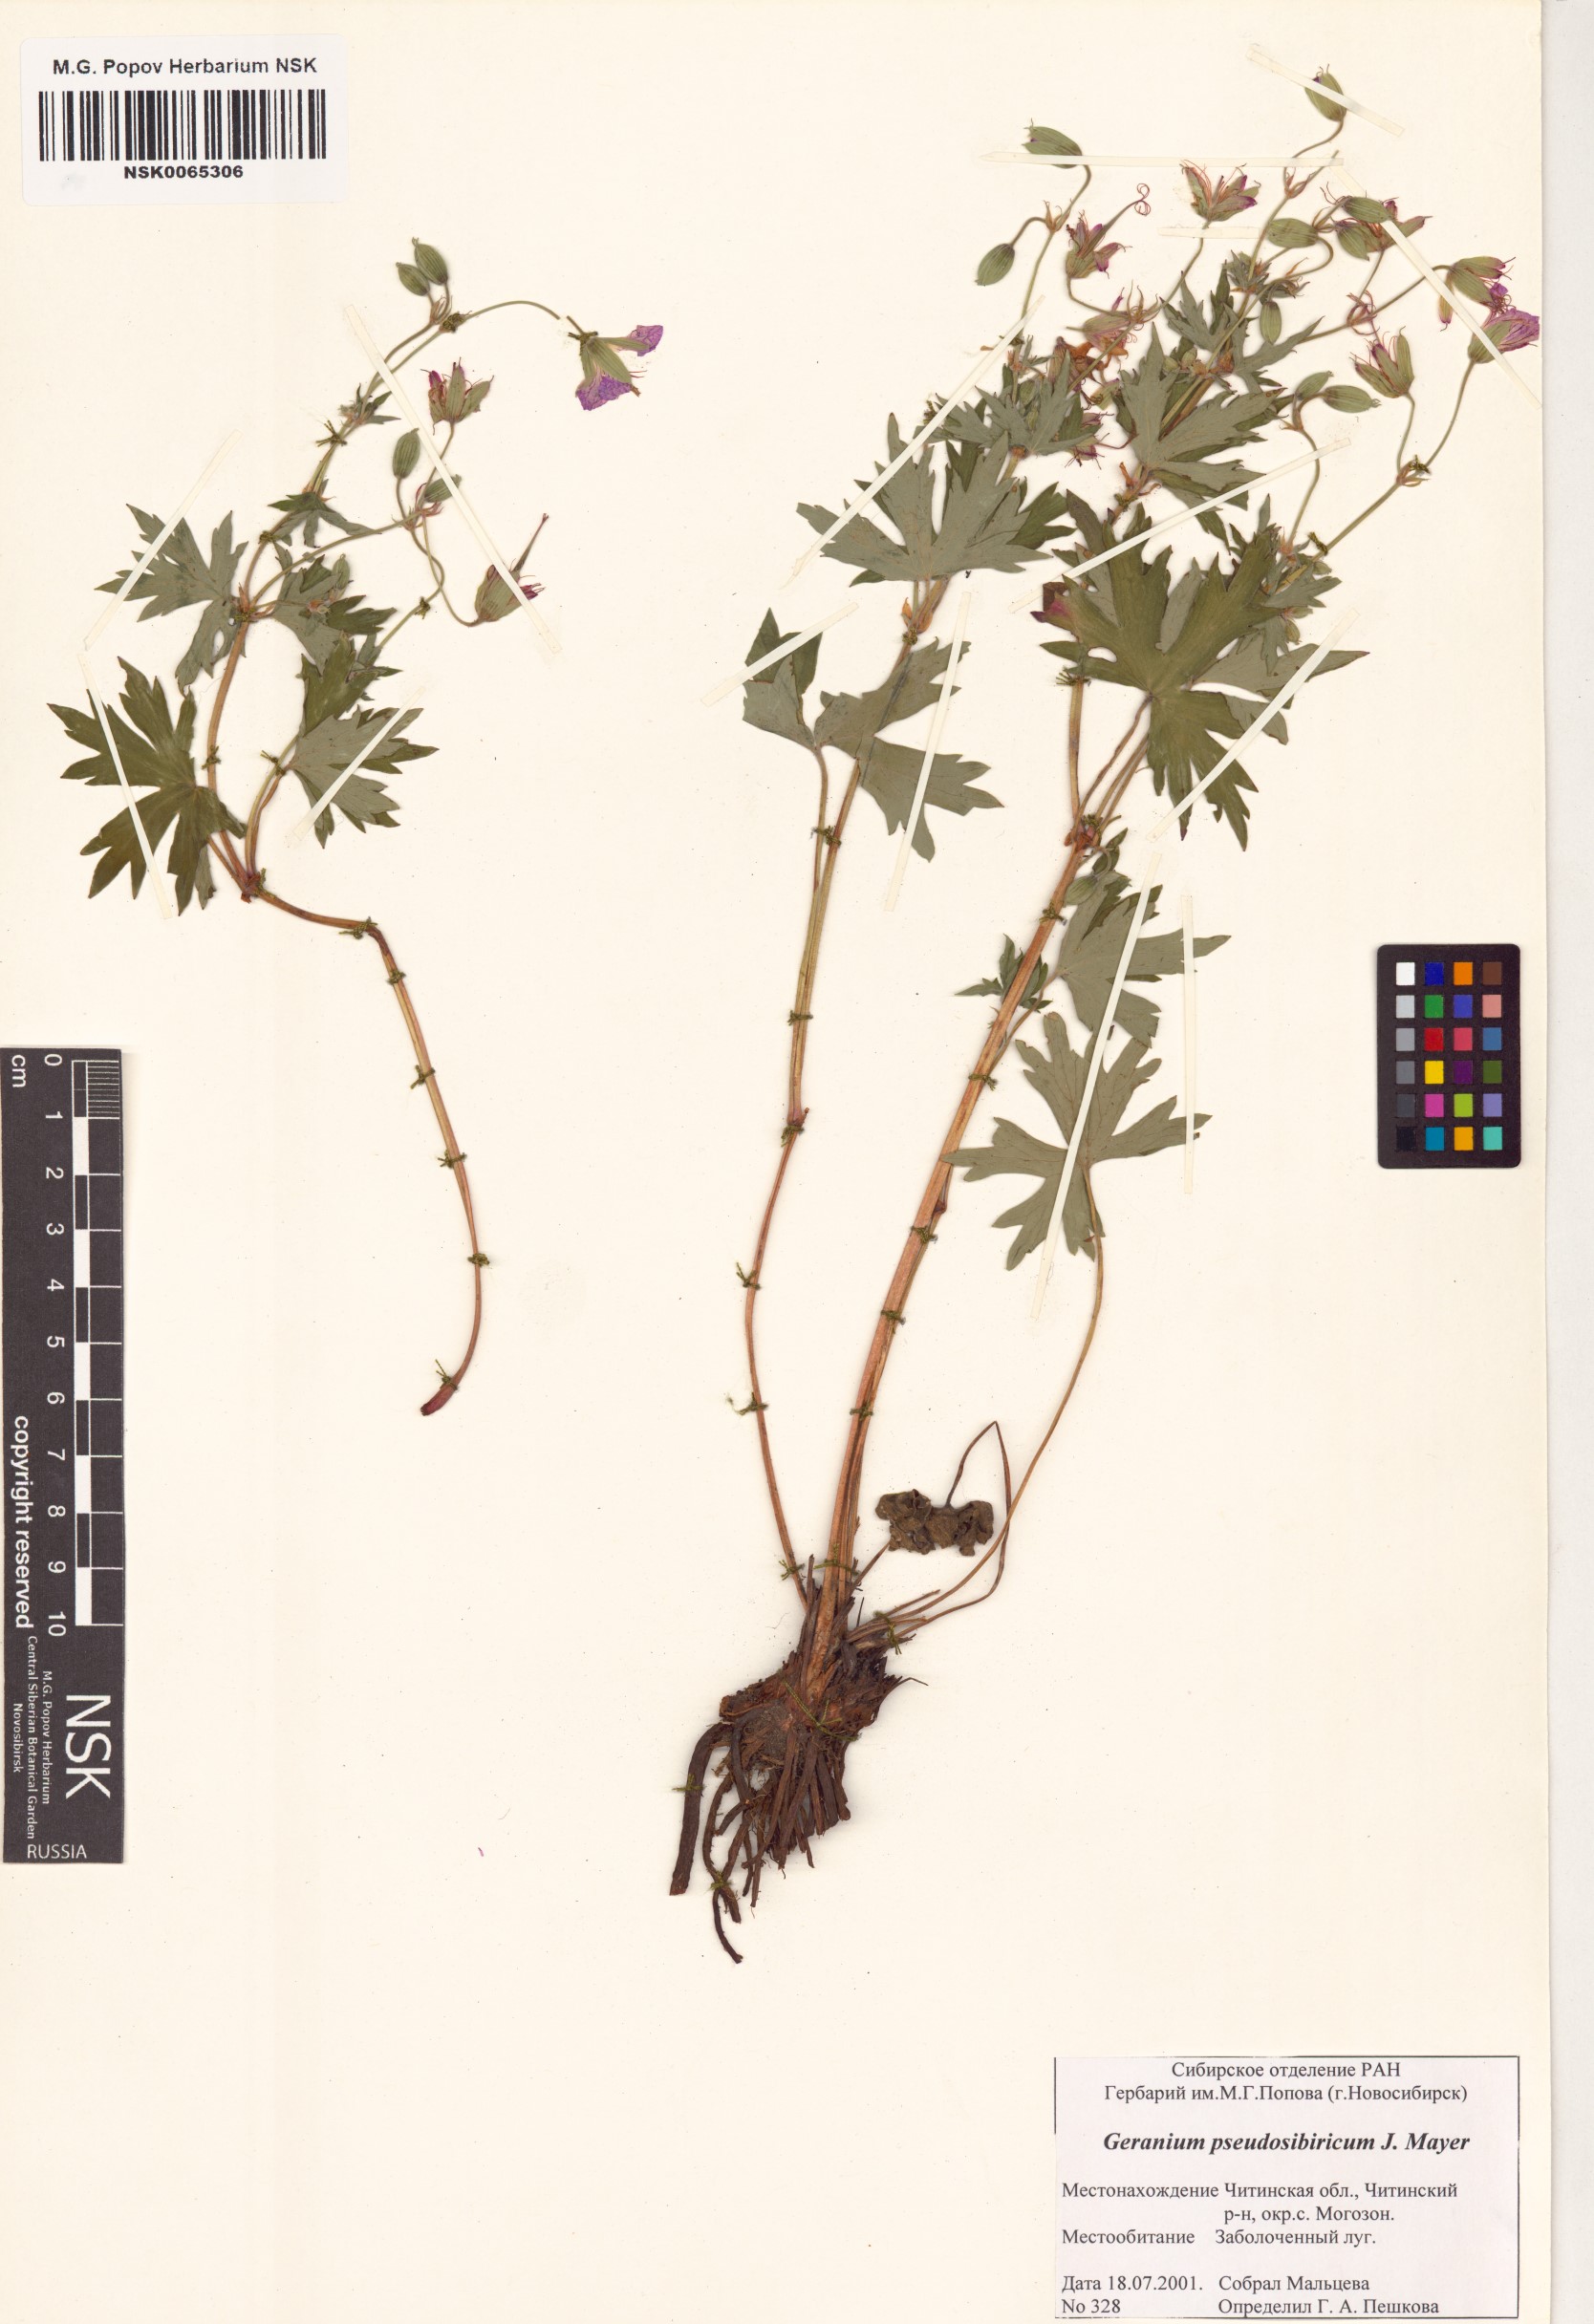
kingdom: Plantae
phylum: Tracheophyta
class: Magnoliopsida
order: Geraniales
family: Geraniaceae
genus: Geranium
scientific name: Geranium pseudosibiricum
